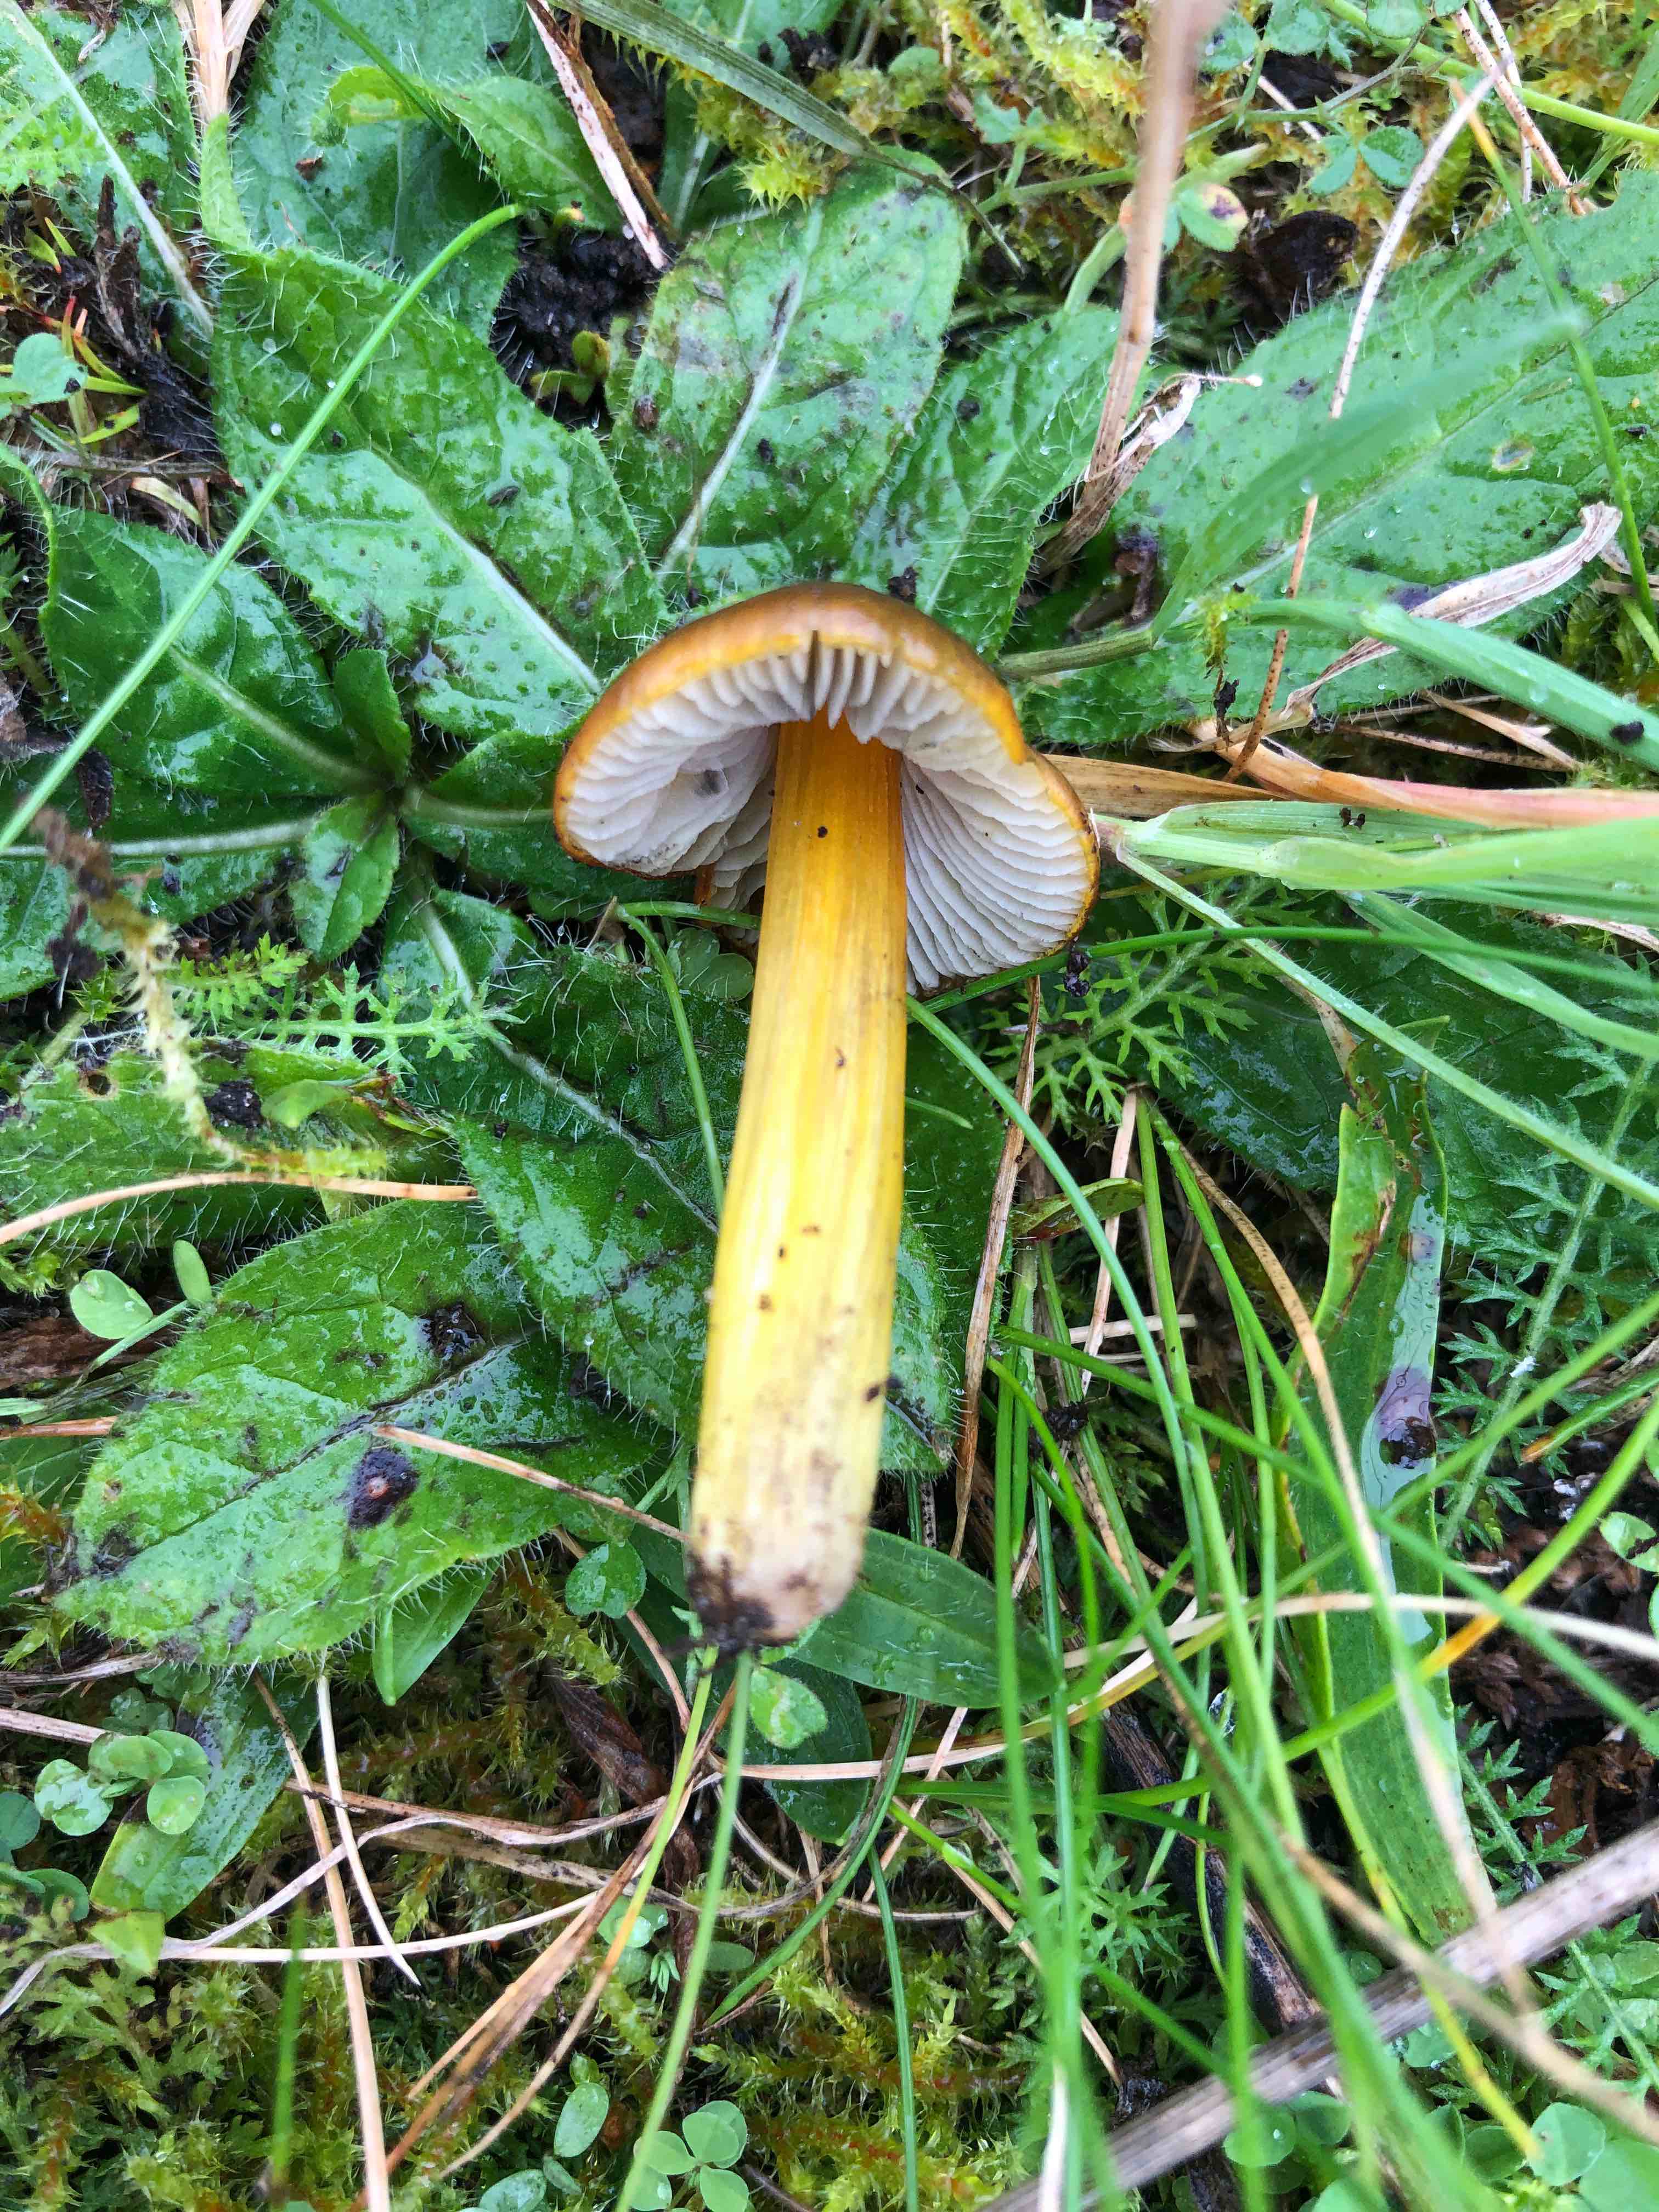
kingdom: Fungi
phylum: Basidiomycota
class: Agaricomycetes
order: Agaricales
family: Hygrophoraceae
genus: Hygrocybe
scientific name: Hygrocybe conica
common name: kegle-vokshat
